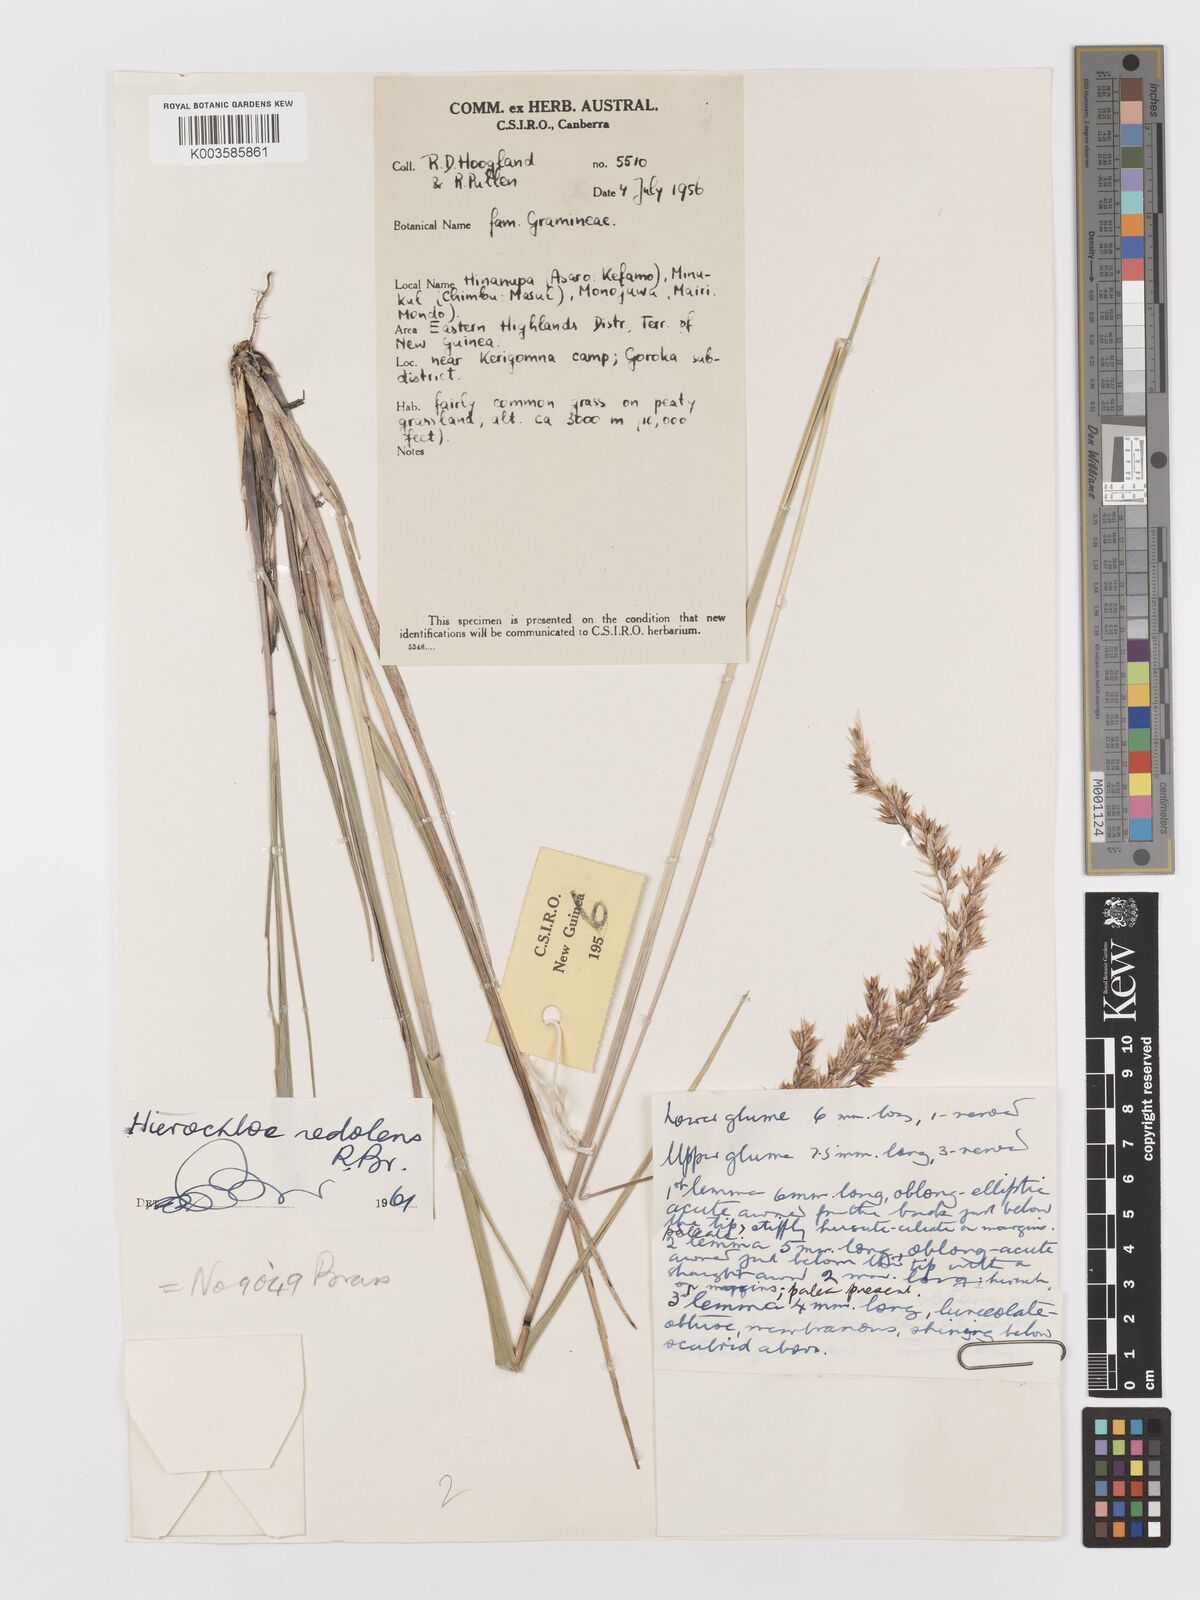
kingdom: Plantae
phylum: Tracheophyta
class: Liliopsida
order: Poales
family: Poaceae
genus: Anthoxanthum
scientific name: Anthoxanthum redolens
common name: Sweet holy grass
